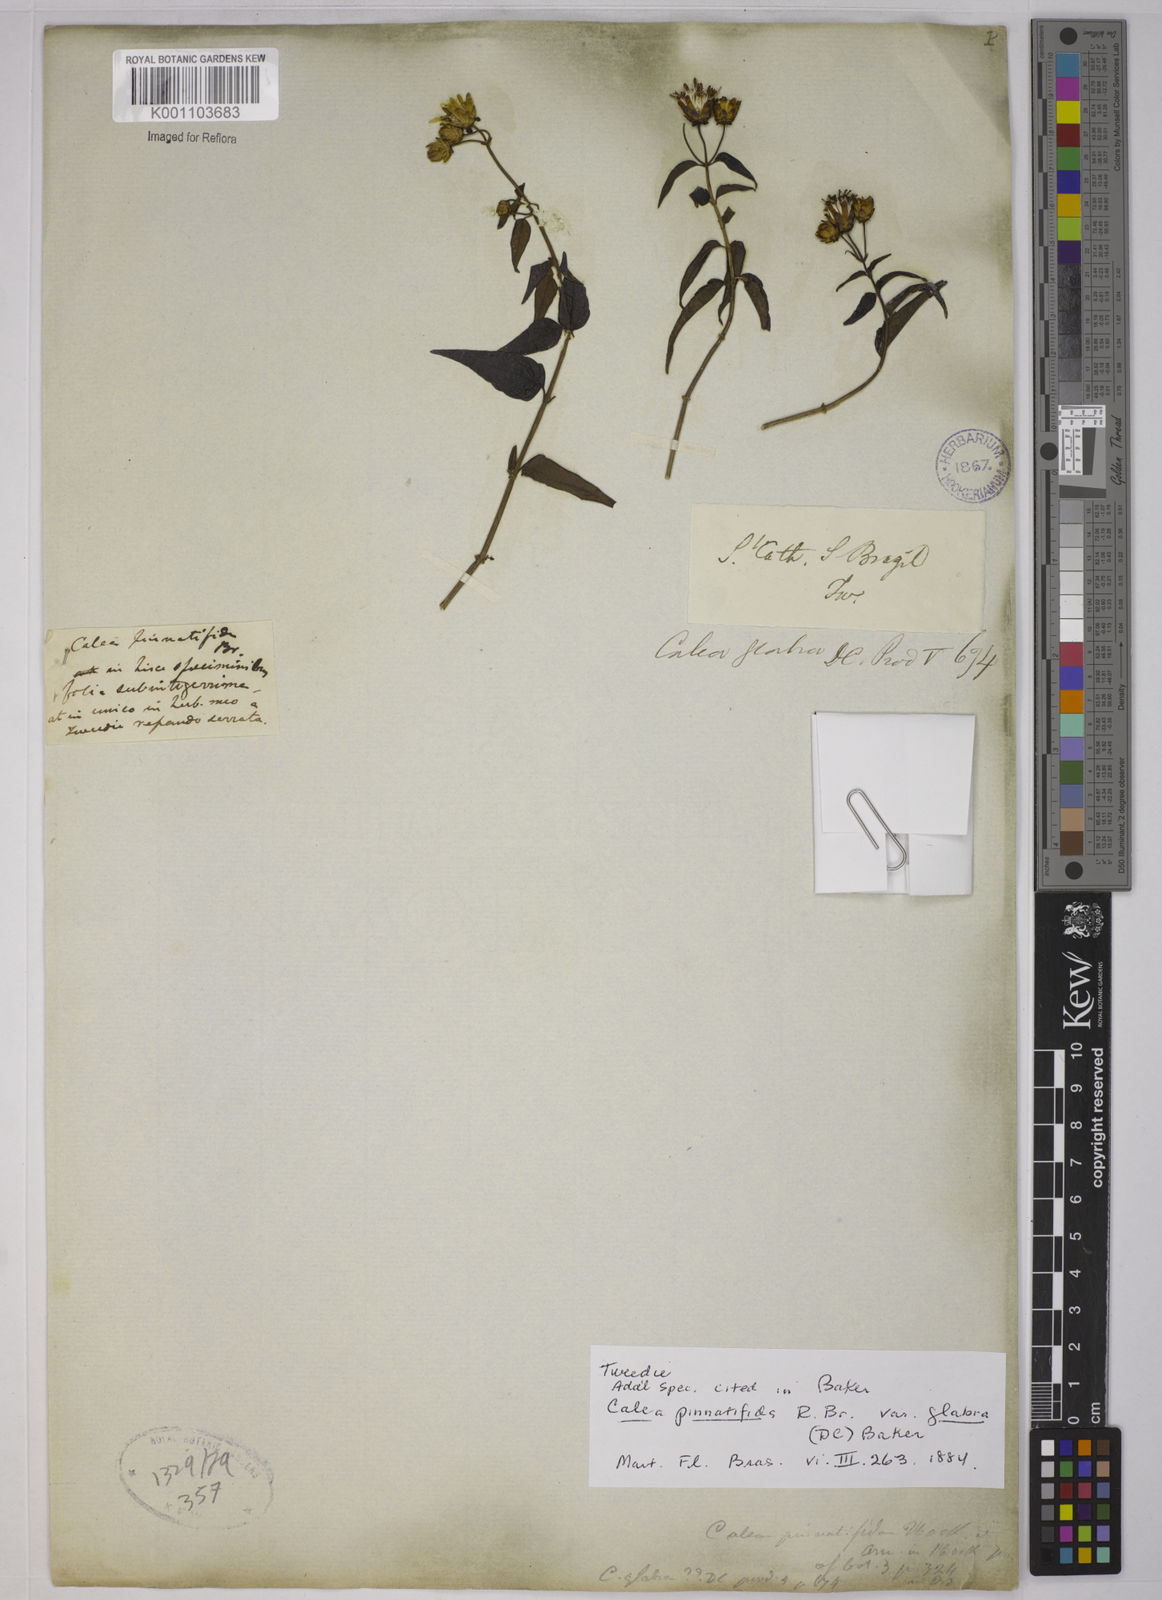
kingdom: Plantae
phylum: Tracheophyta
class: Magnoliopsida
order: Asterales
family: Asteraceae
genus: Calea
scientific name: Calea
